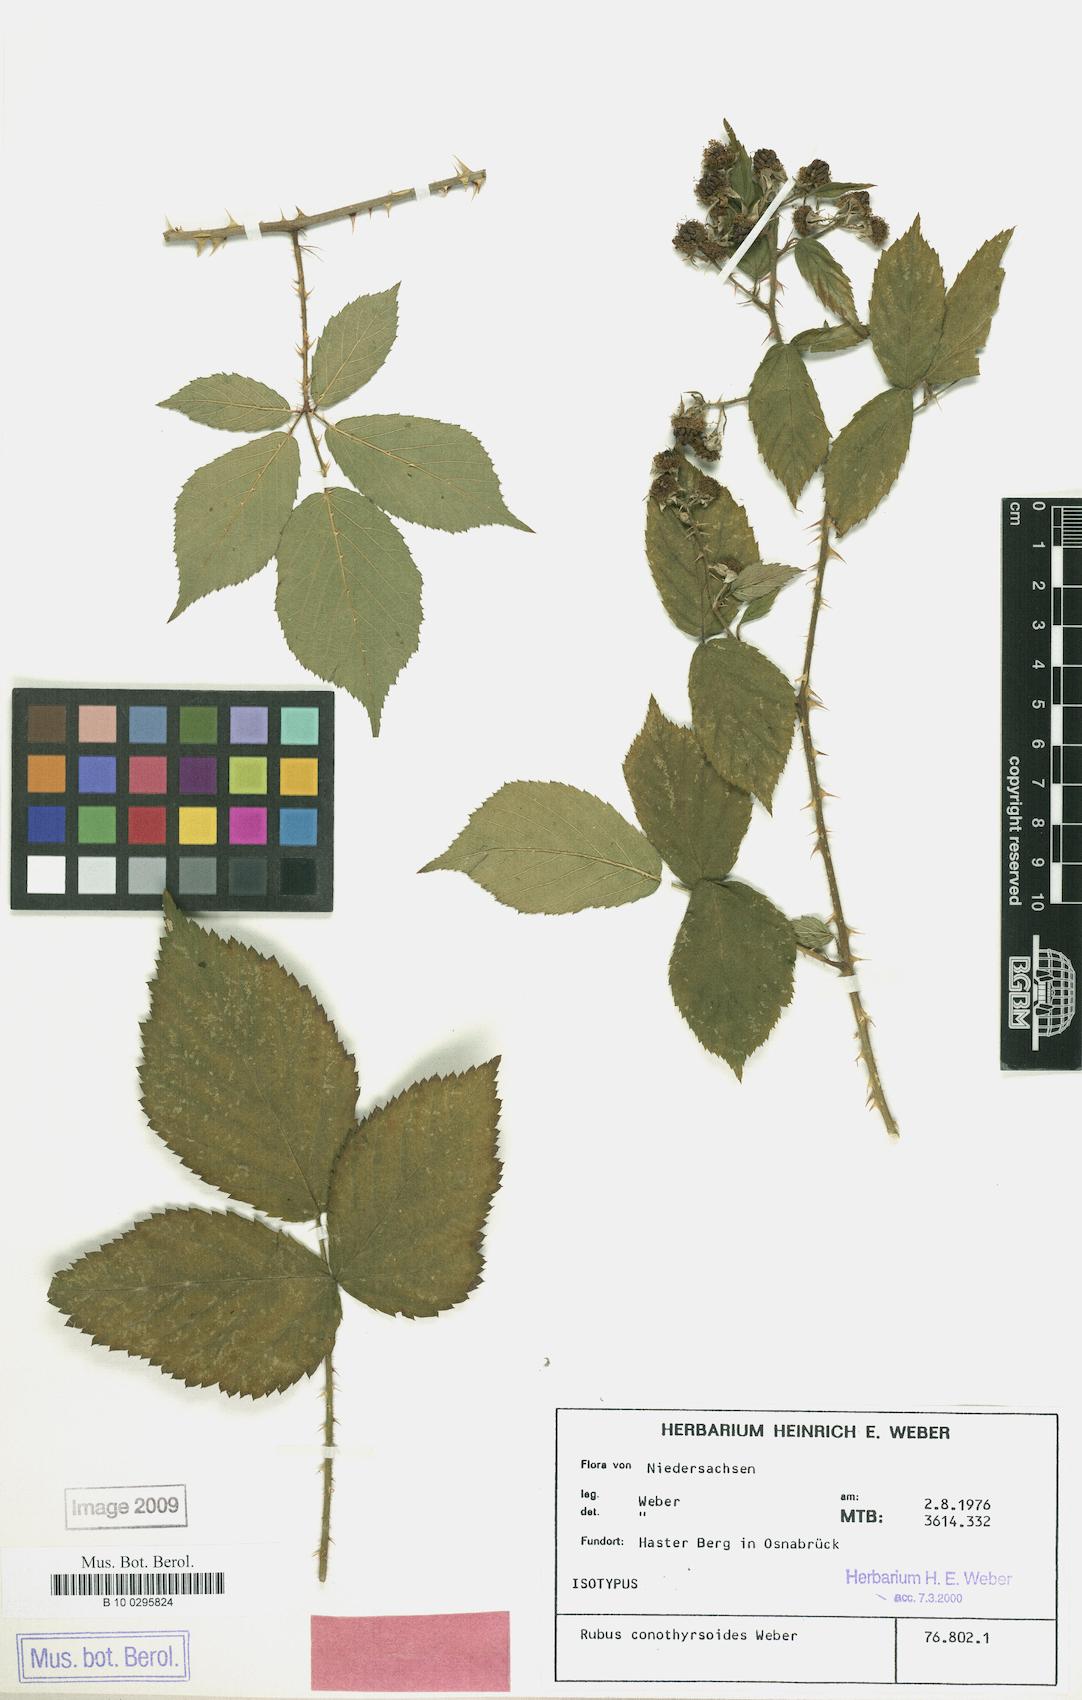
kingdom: Plantae
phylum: Tracheophyta
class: Magnoliopsida
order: Rosales
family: Rosaceae
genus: Rubus
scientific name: Rubus conothyrsoides
